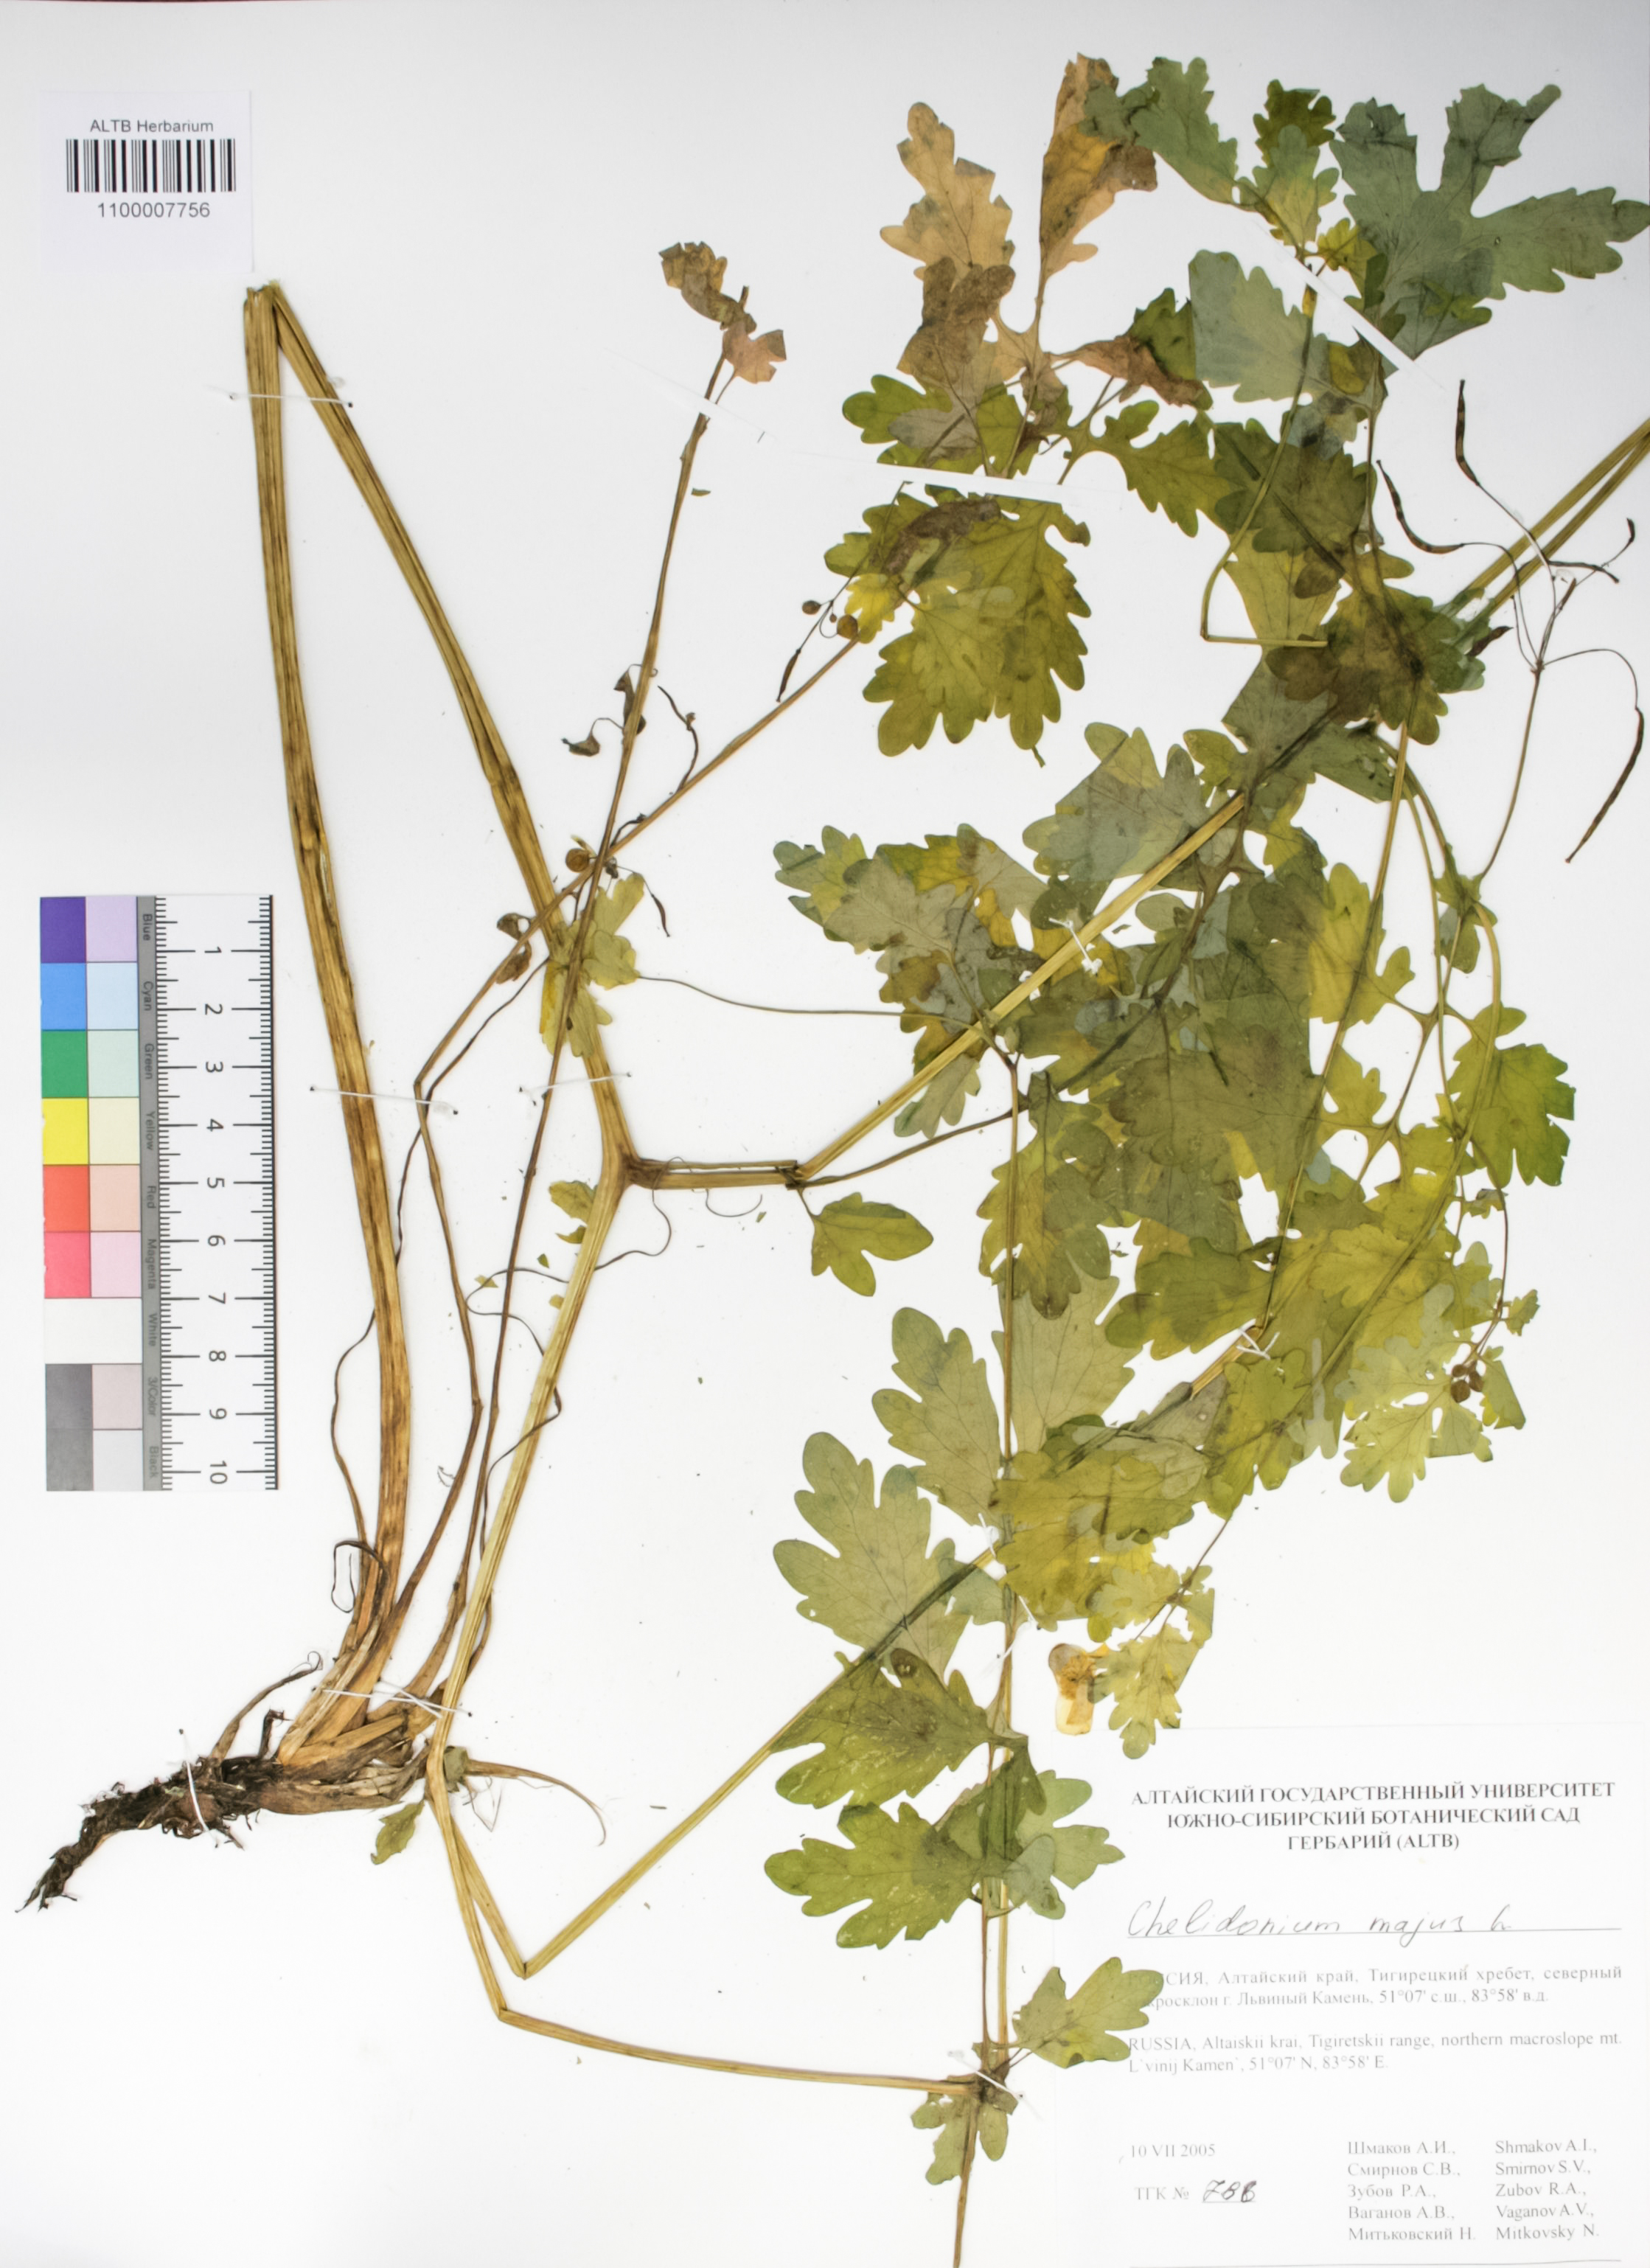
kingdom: Plantae
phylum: Tracheophyta
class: Magnoliopsida
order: Ranunculales
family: Papaveraceae
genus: Chelidonium
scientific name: Chelidonium majus
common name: Greater celandine
